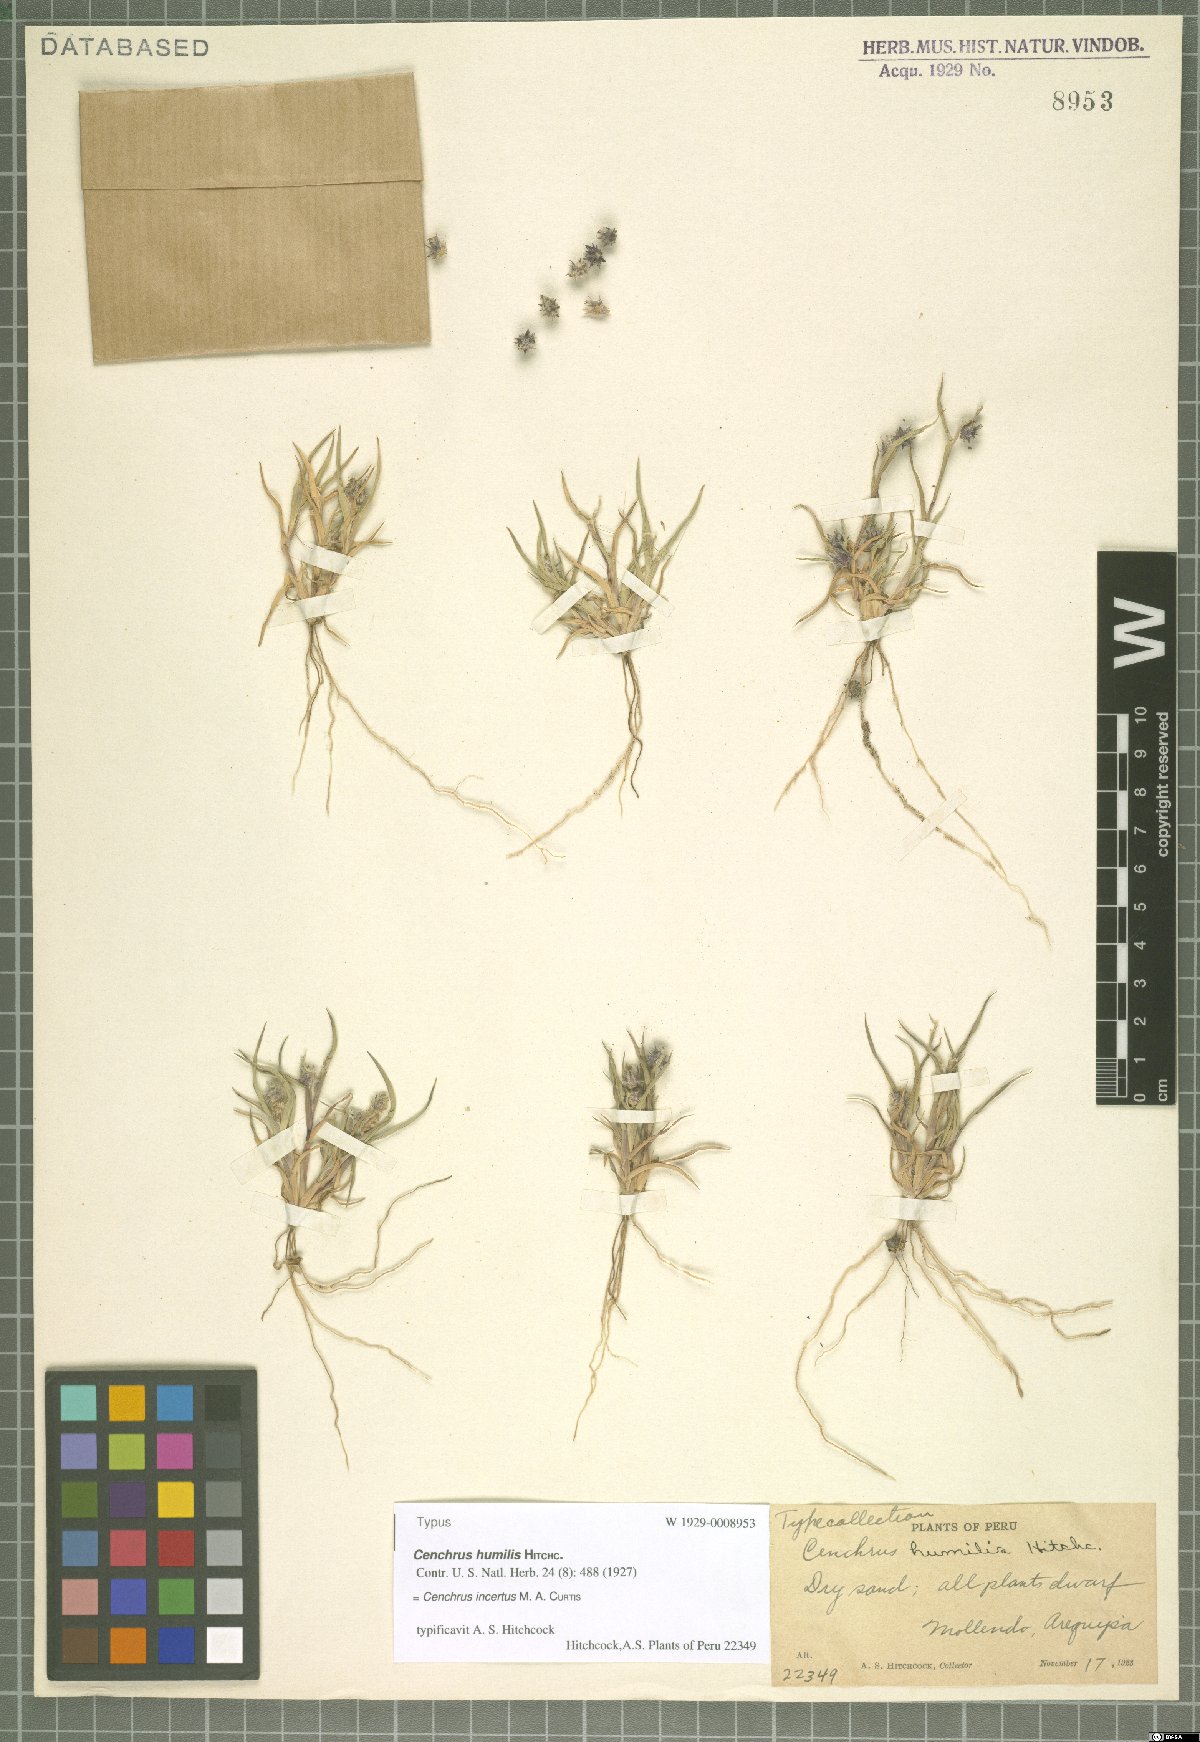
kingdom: Plantae
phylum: Tracheophyta
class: Liliopsida
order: Poales
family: Poaceae
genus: Cenchrus
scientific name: Cenchrus spinifex
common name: Coast sandbur
